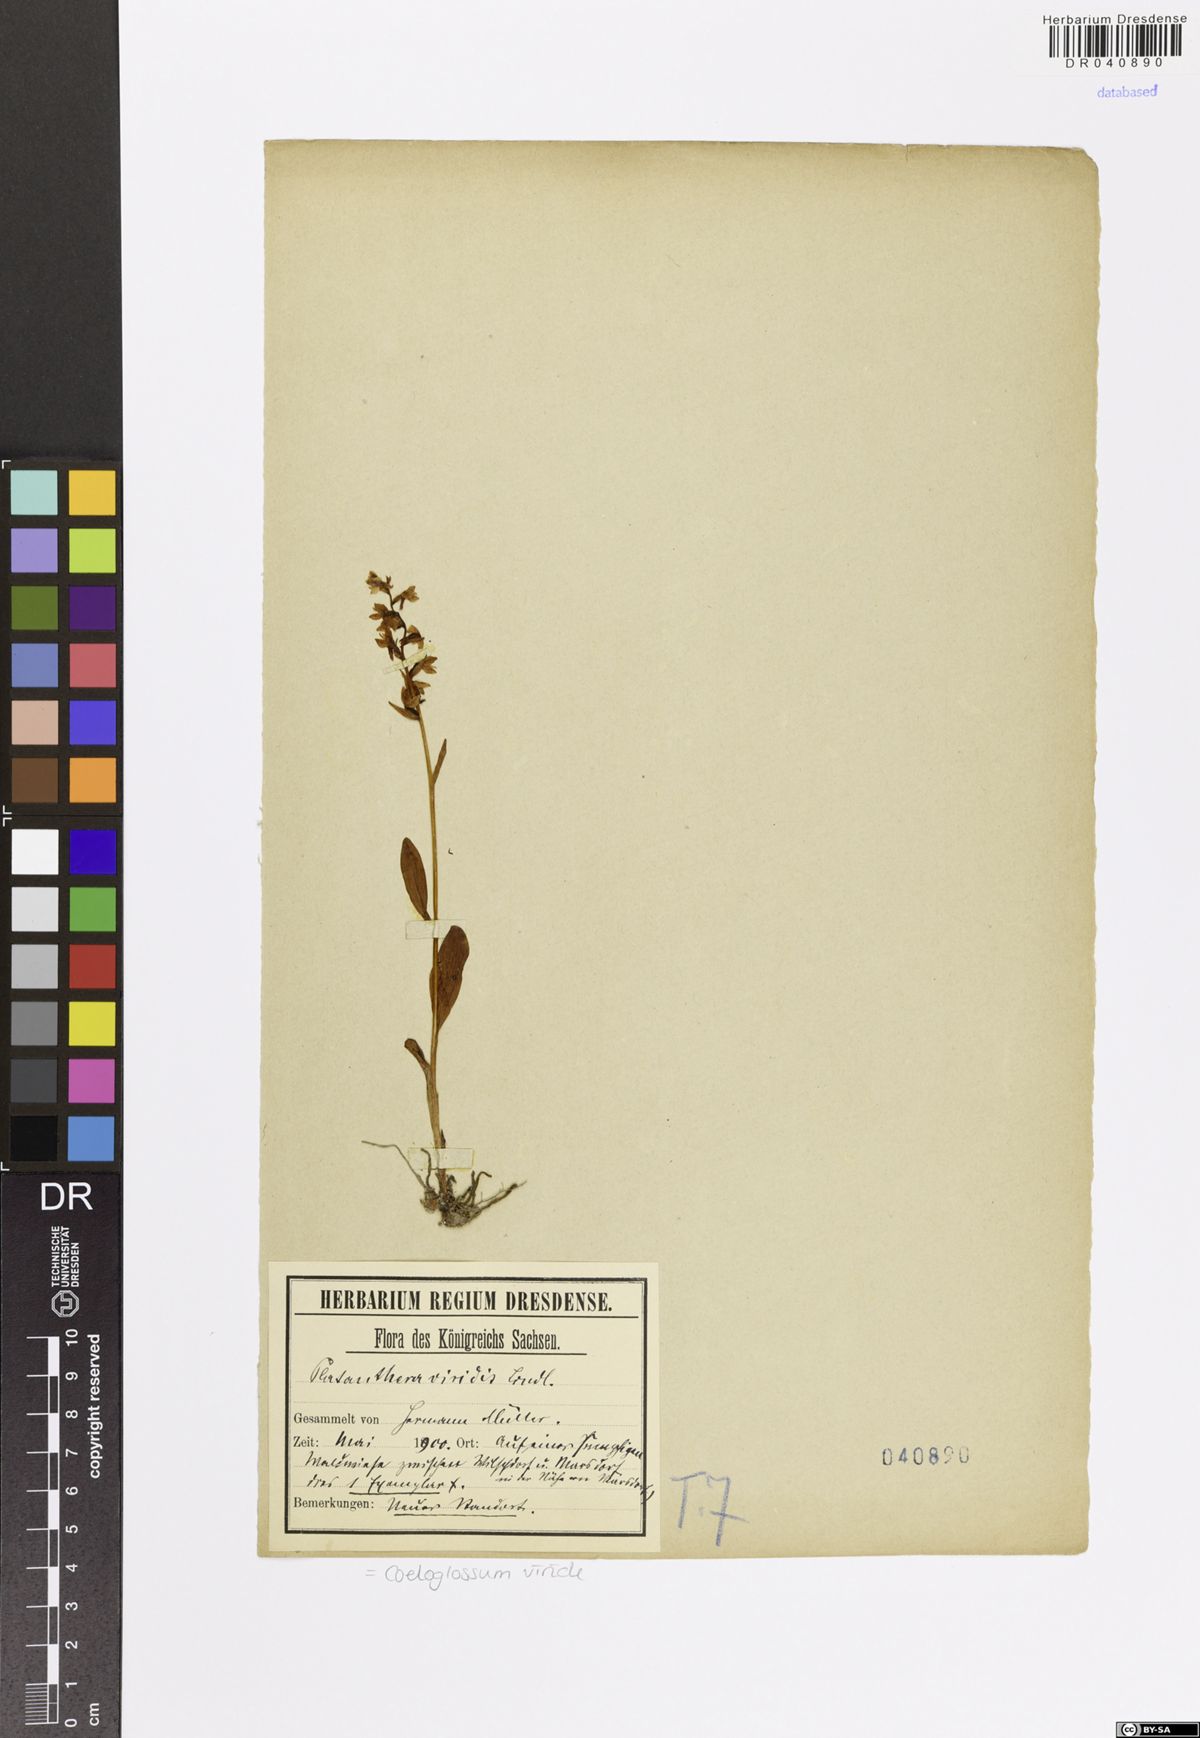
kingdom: Plantae
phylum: Tracheophyta
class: Liliopsida
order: Asparagales
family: Orchidaceae
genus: Dactylorhiza
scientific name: Dactylorhiza viridis
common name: Longbract frog orchid
